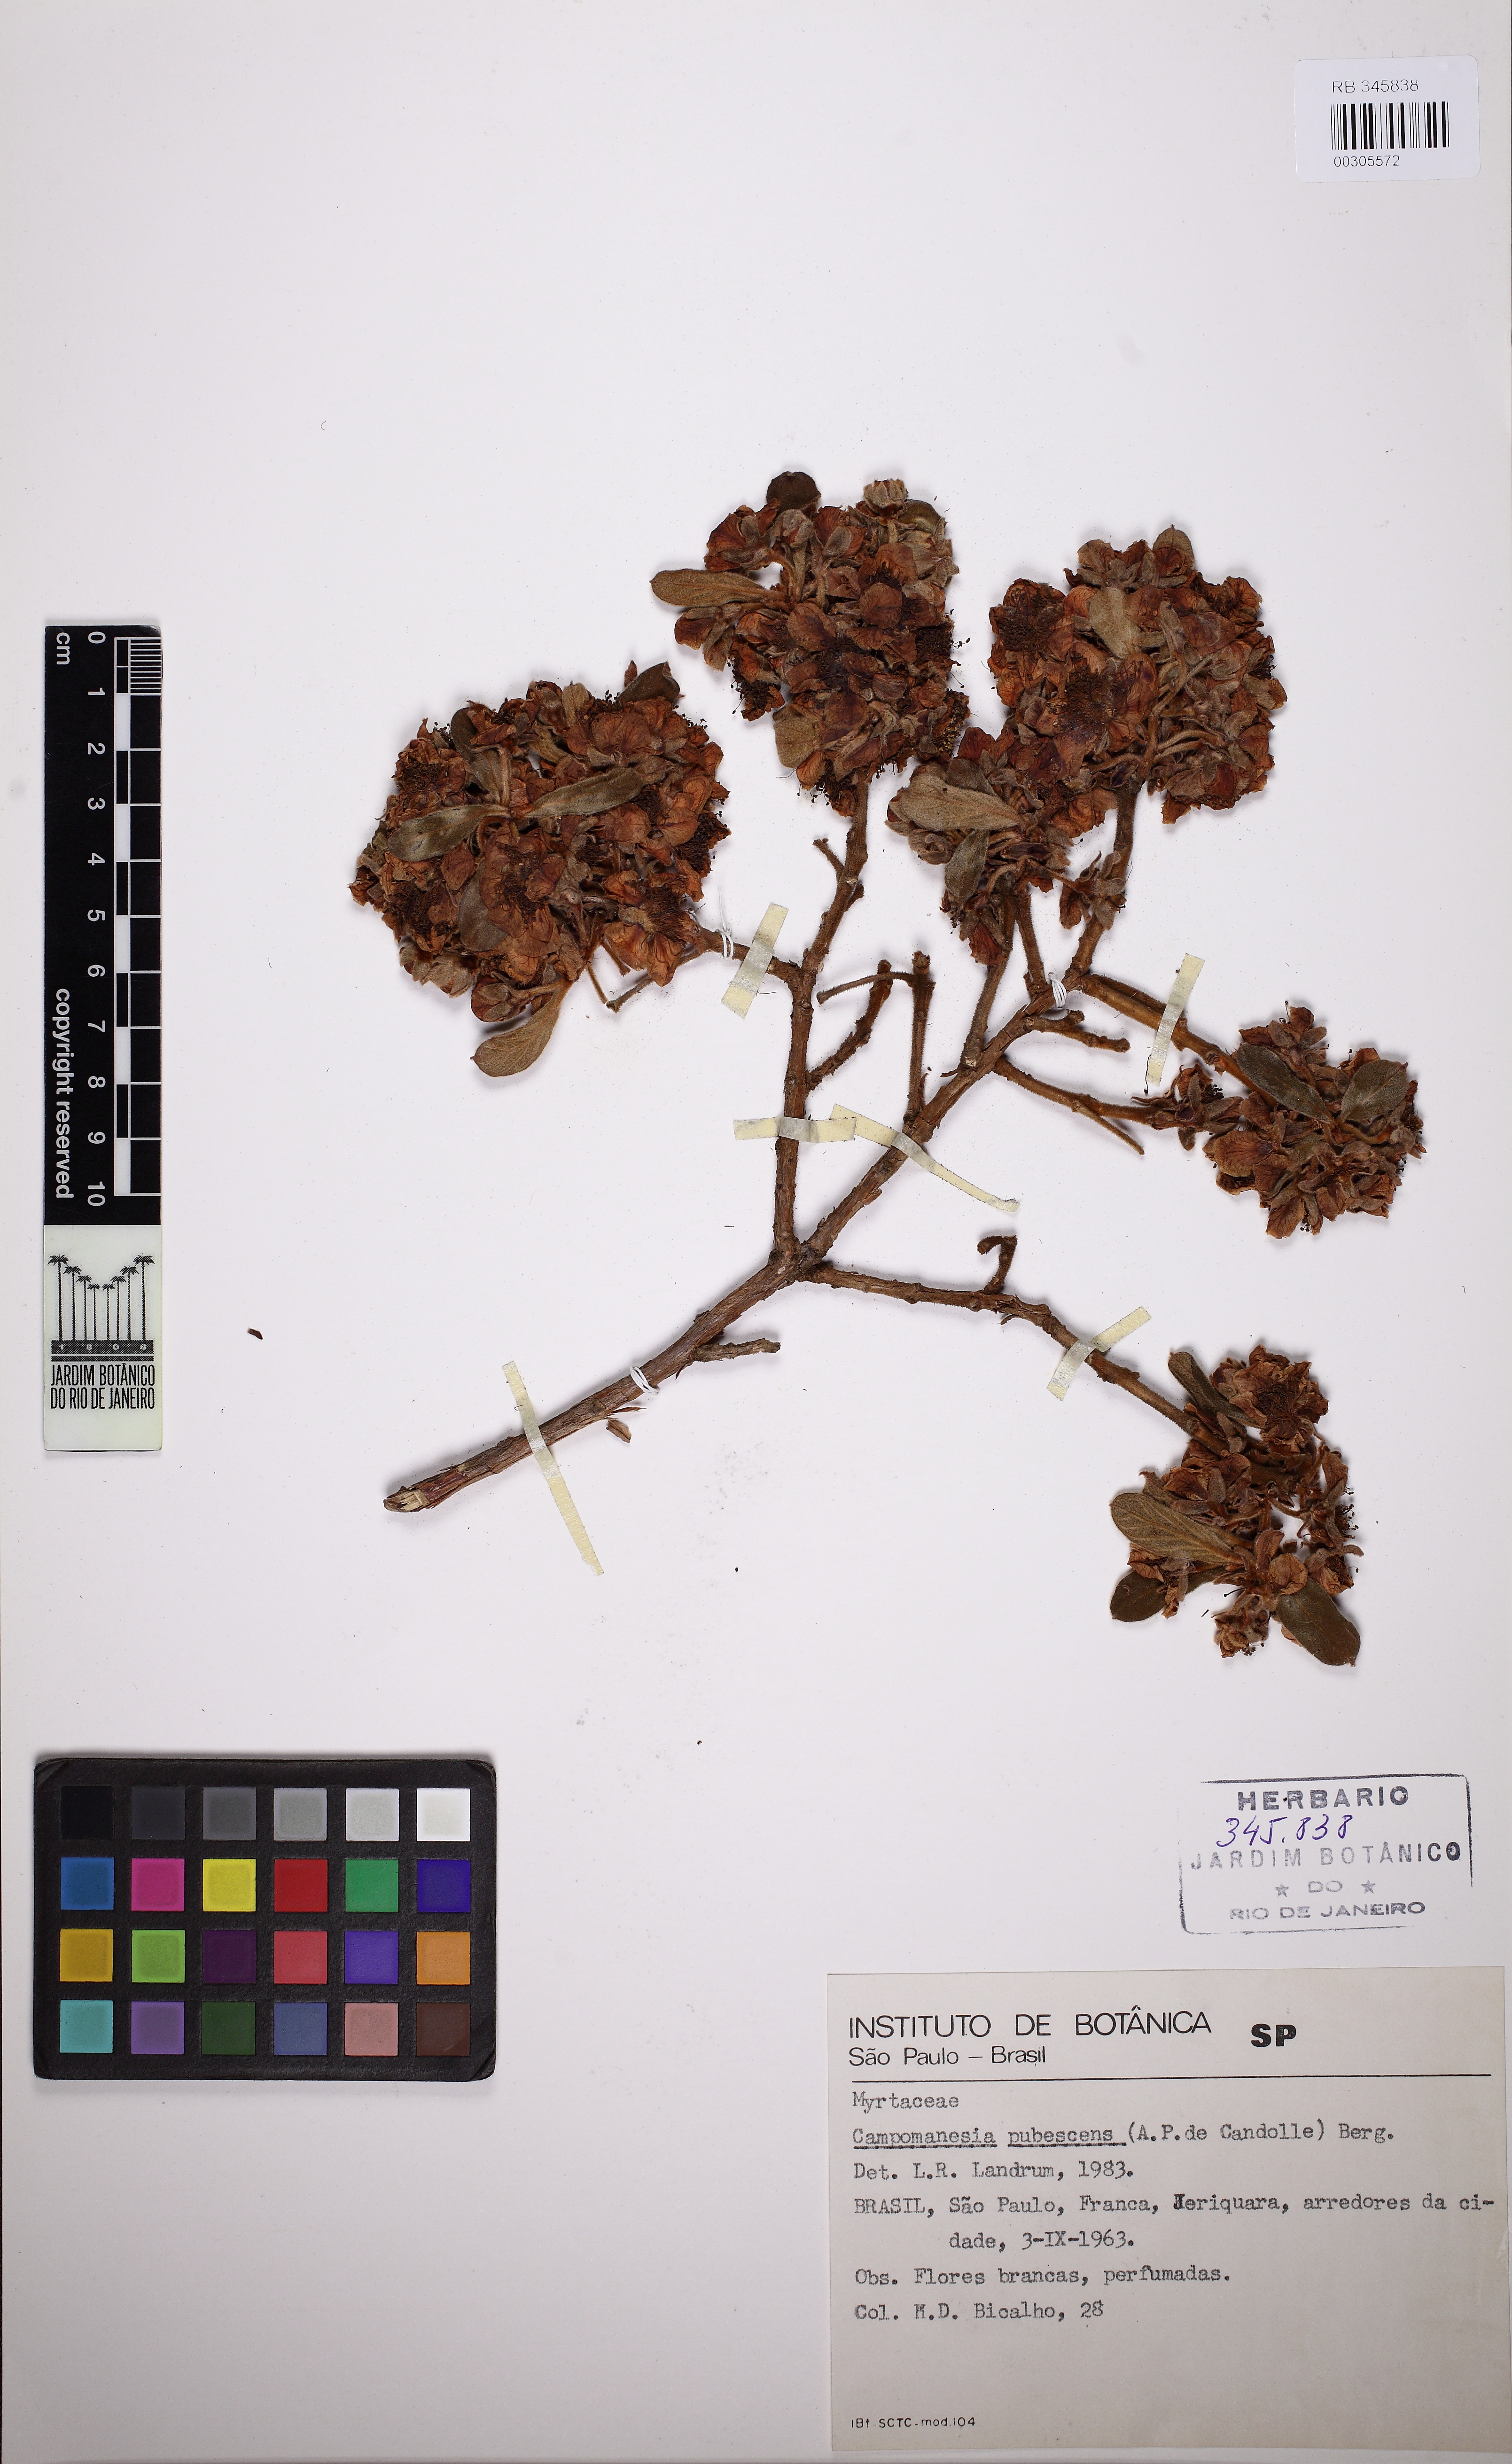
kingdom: Plantae
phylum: Tracheophyta
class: Magnoliopsida
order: Myrtales
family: Myrtaceae
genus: Campomanesia
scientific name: Campomanesia pubescens
